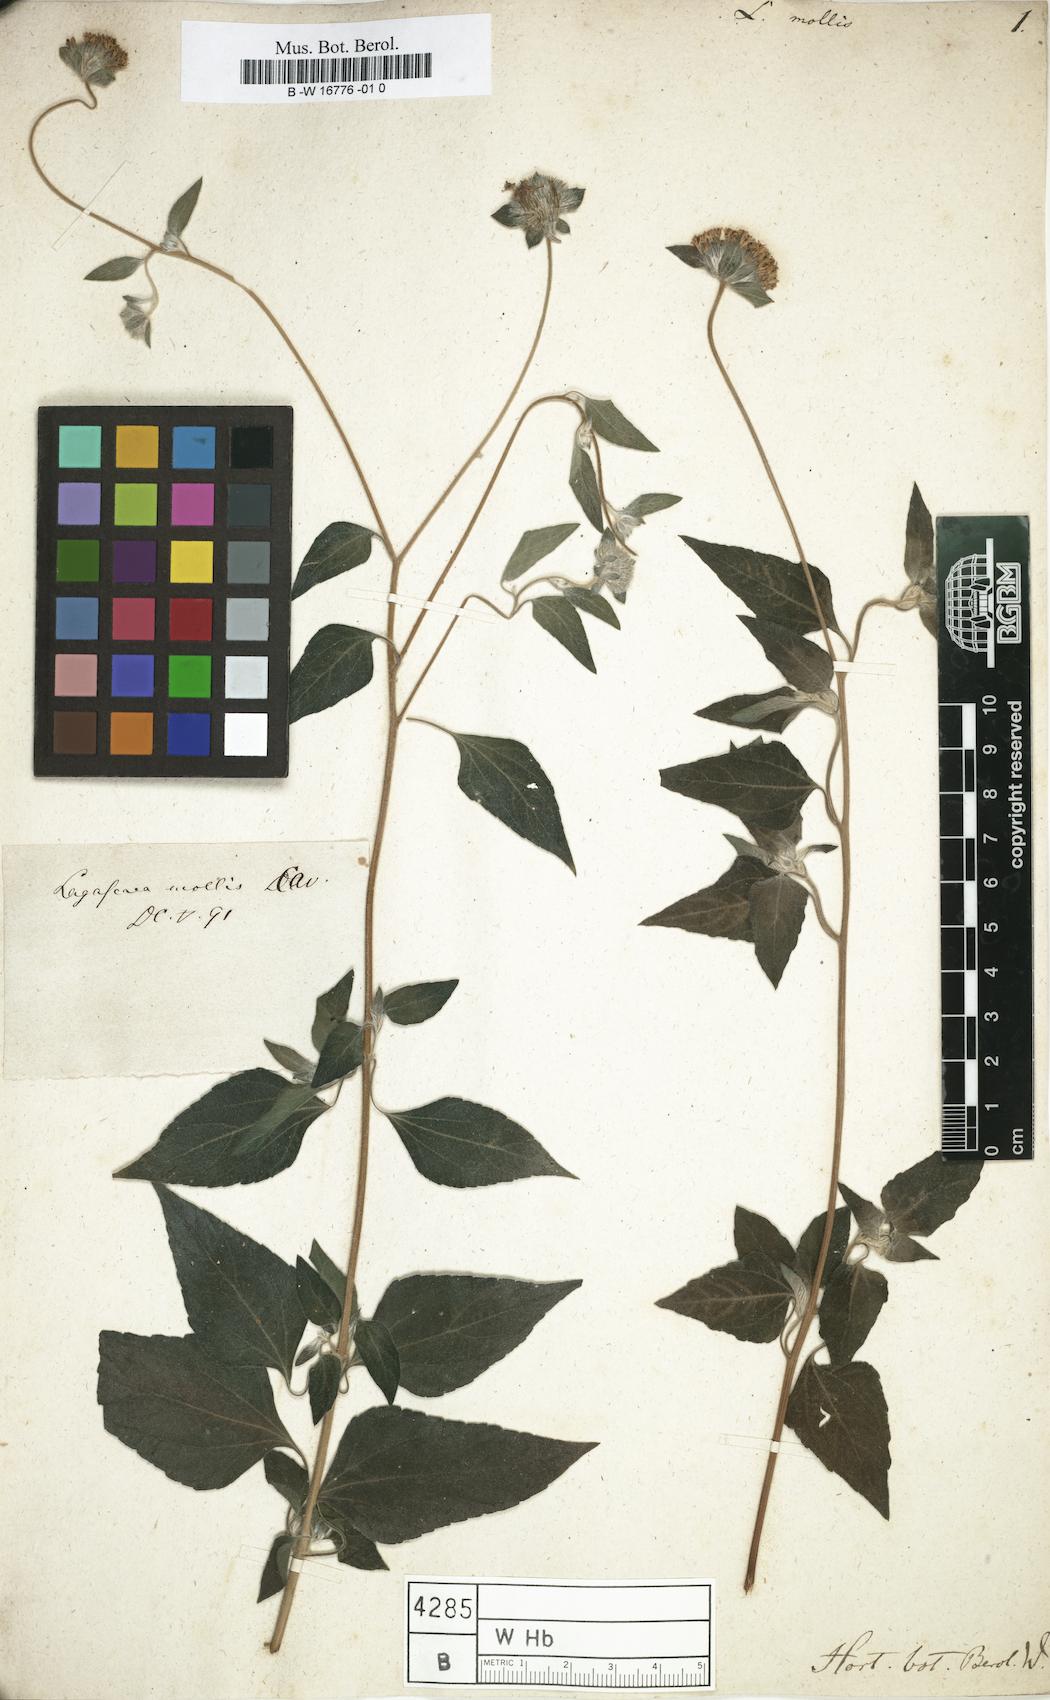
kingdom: Plantae
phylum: Tracheophyta
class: Magnoliopsida
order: Asterales
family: Asteraceae
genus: Lagascea
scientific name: Lagascea mollis
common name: Silkleaf
